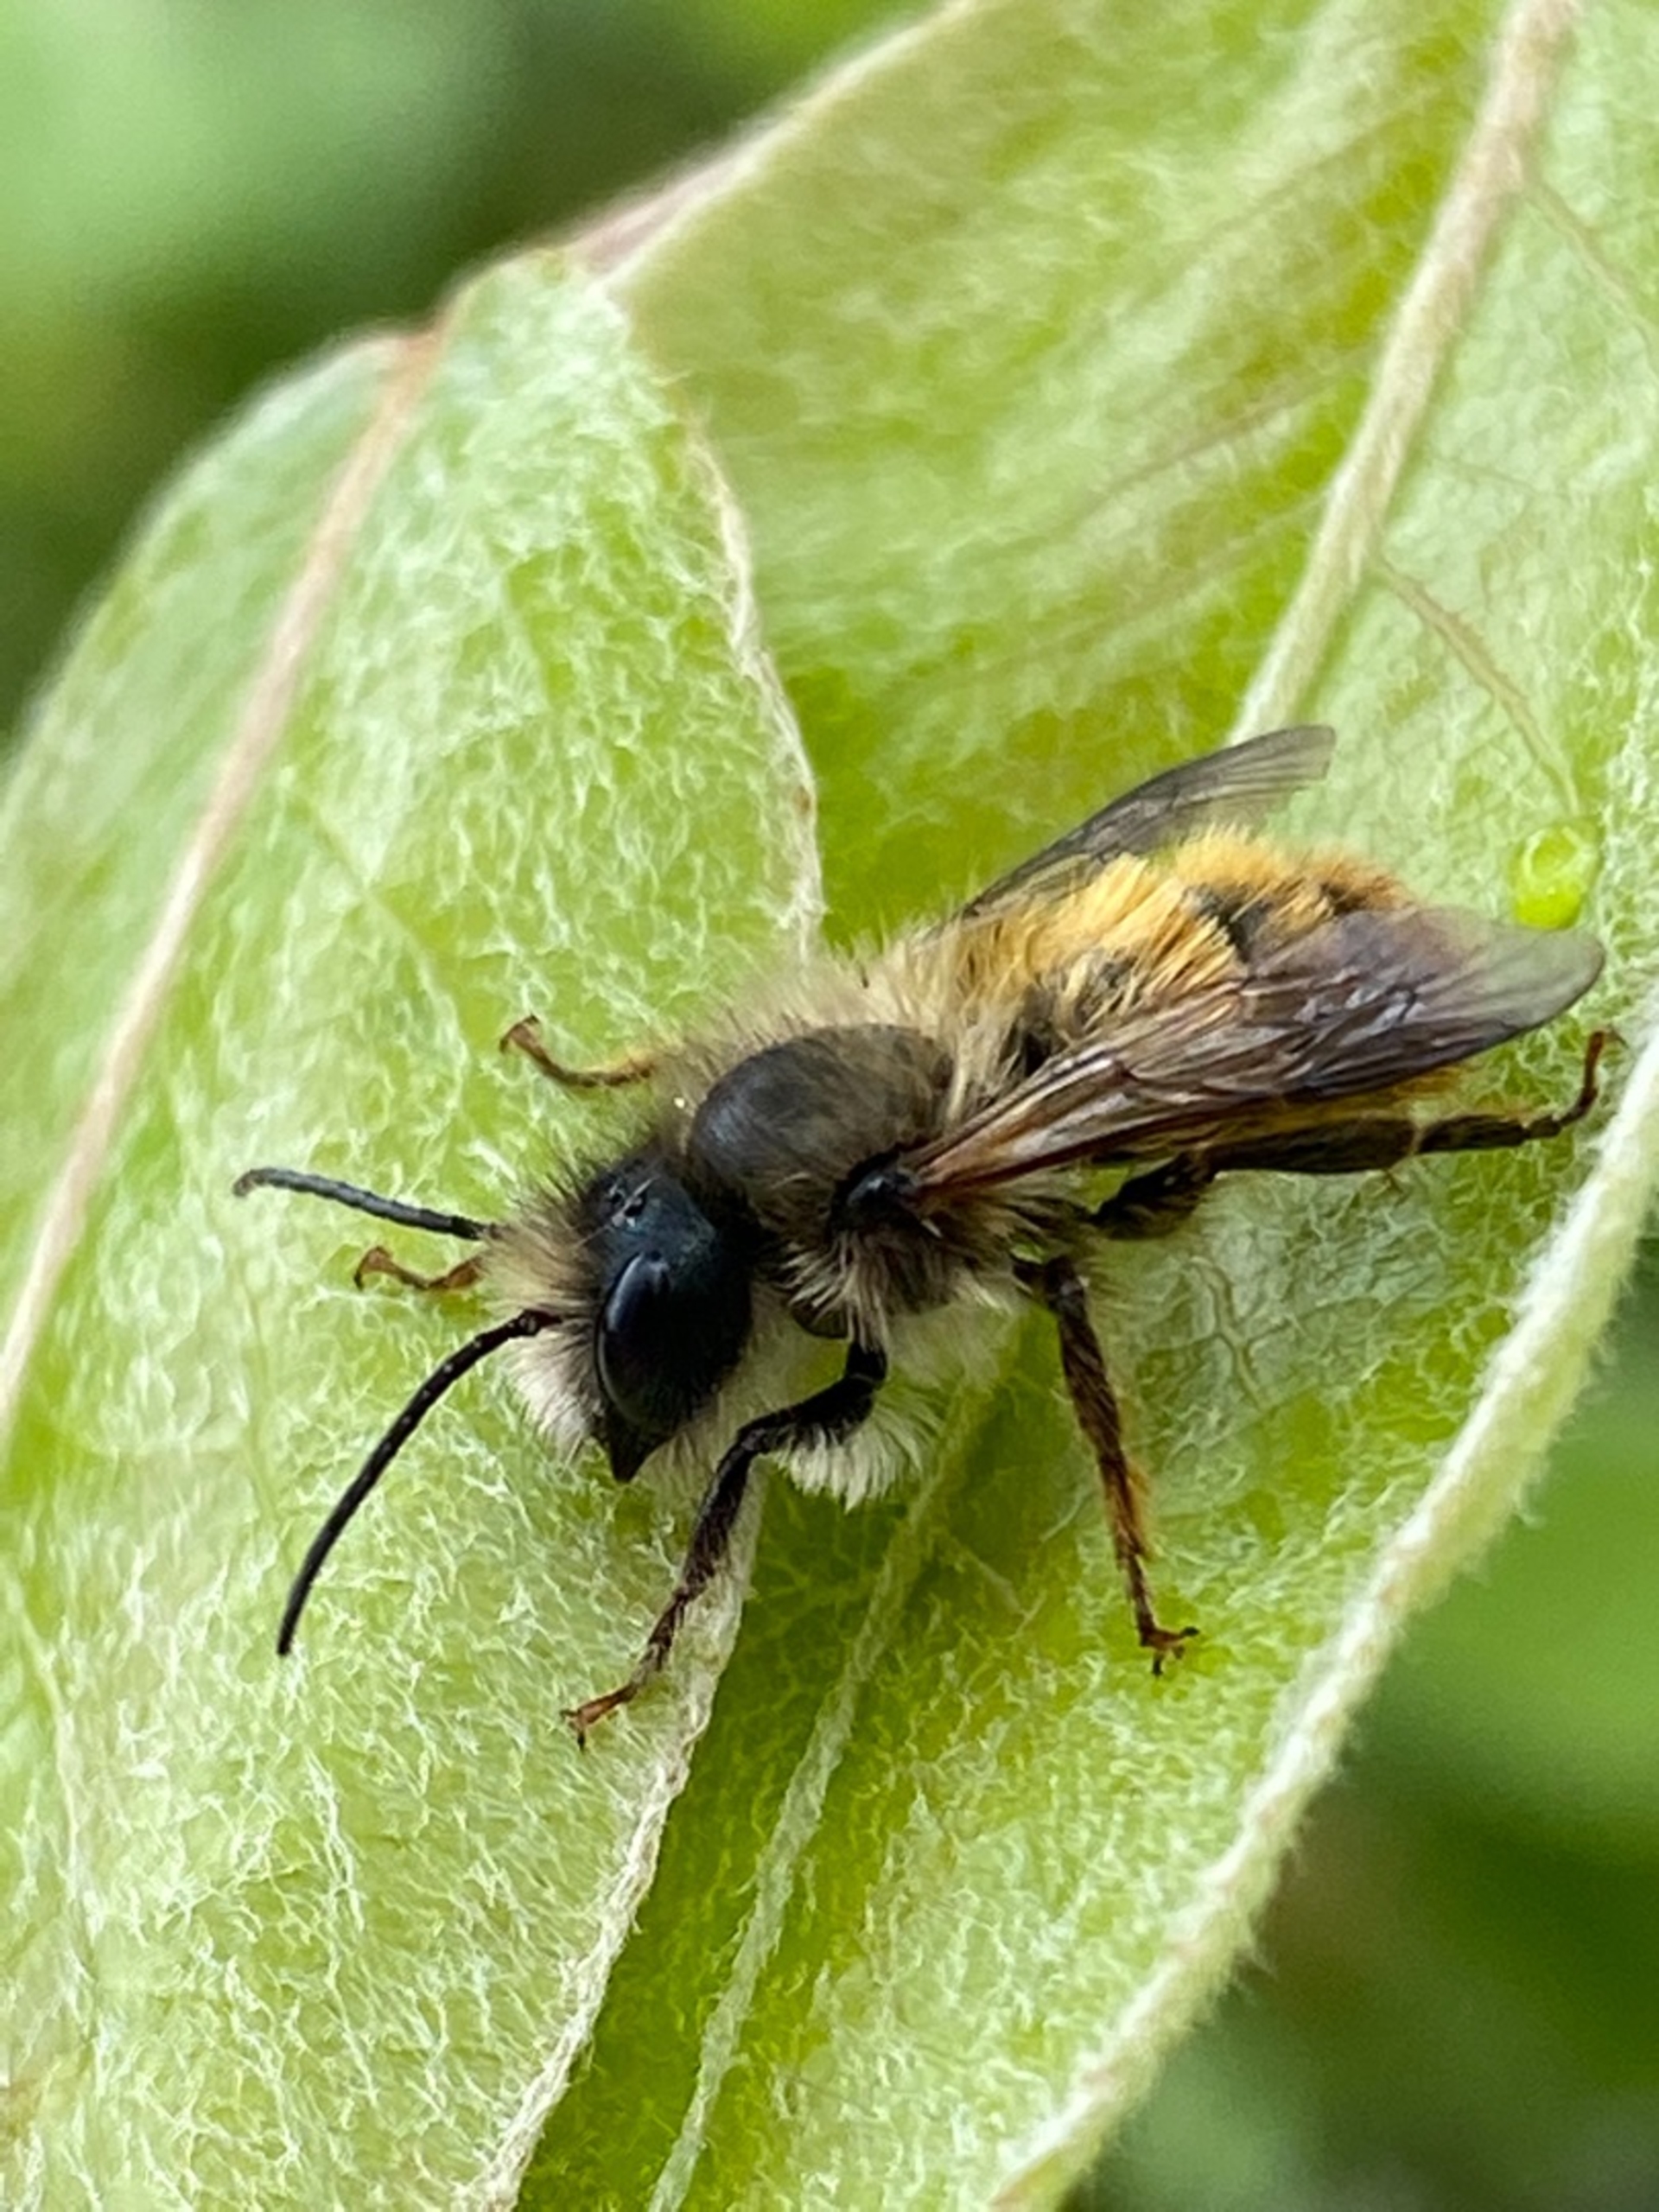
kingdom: Animalia
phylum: Arthropoda
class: Insecta
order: Hymenoptera
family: Megachilidae
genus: Osmia
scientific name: Osmia bicornis
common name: Rød murerbi
